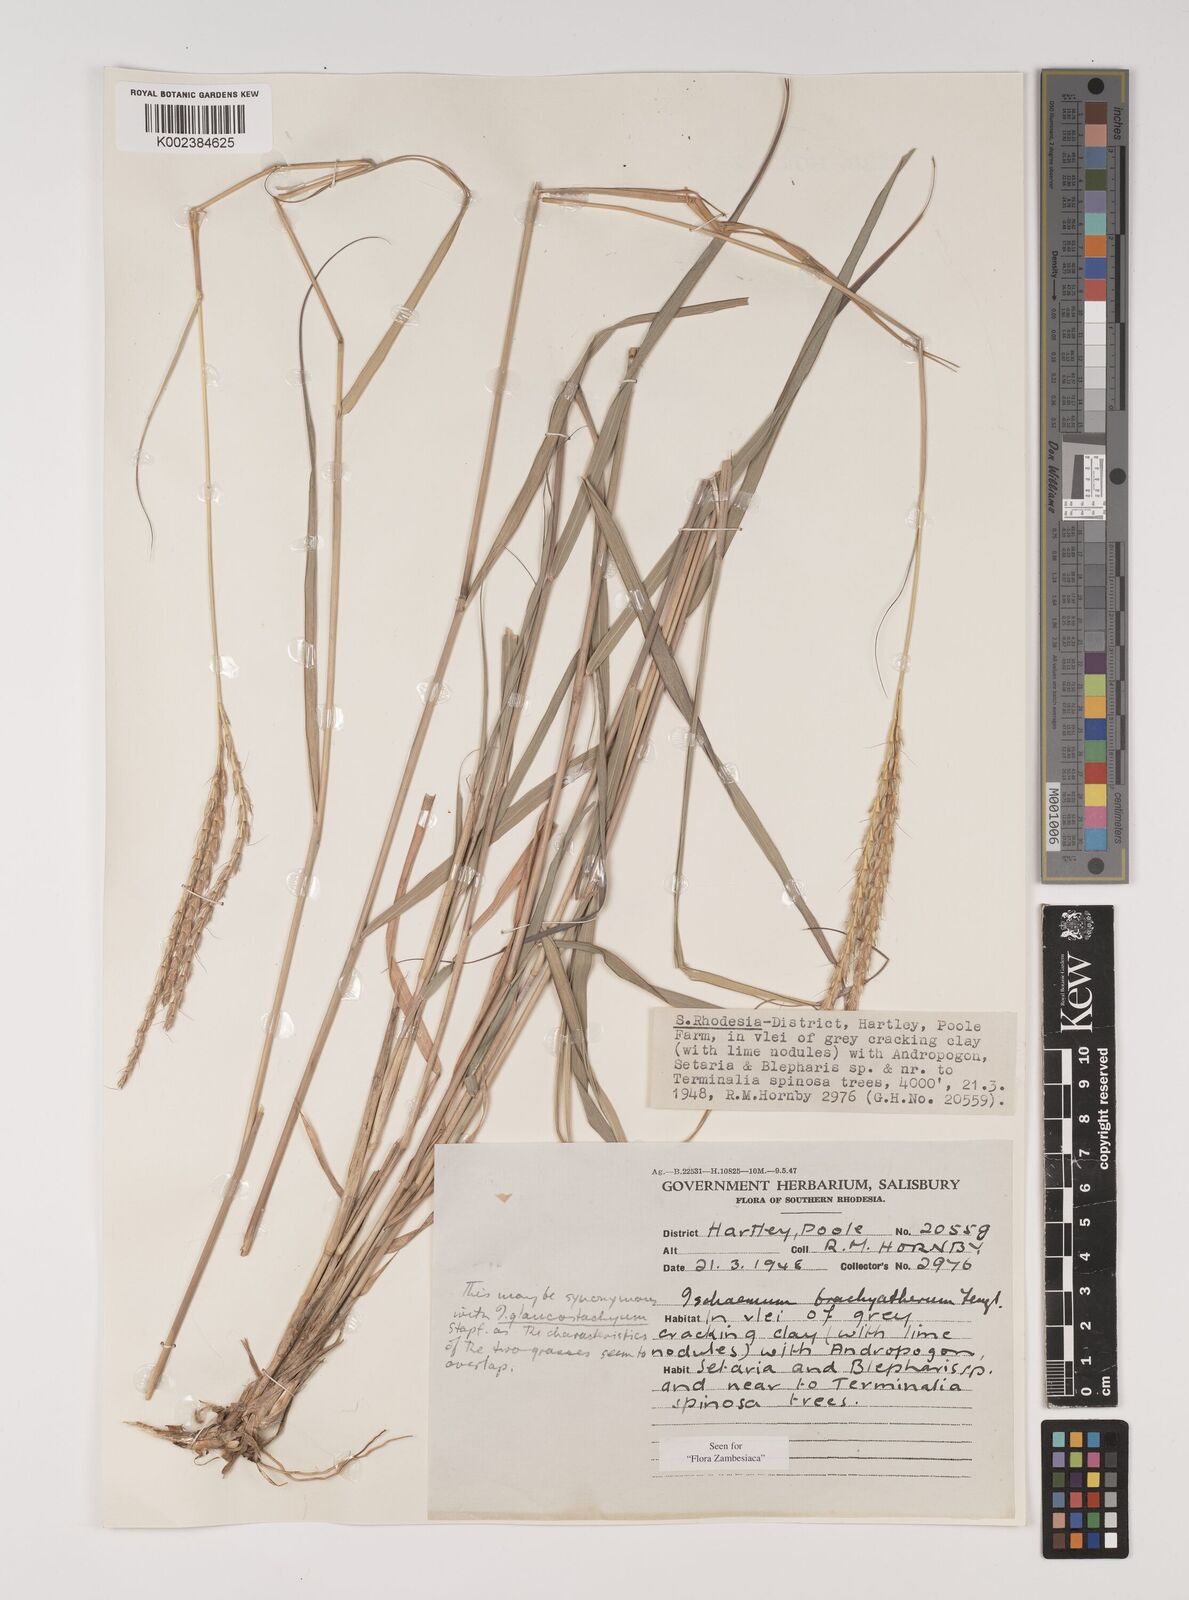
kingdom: Plantae
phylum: Tracheophyta
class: Liliopsida
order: Poales
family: Poaceae
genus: Ischaemum
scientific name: Ischaemum afrum
